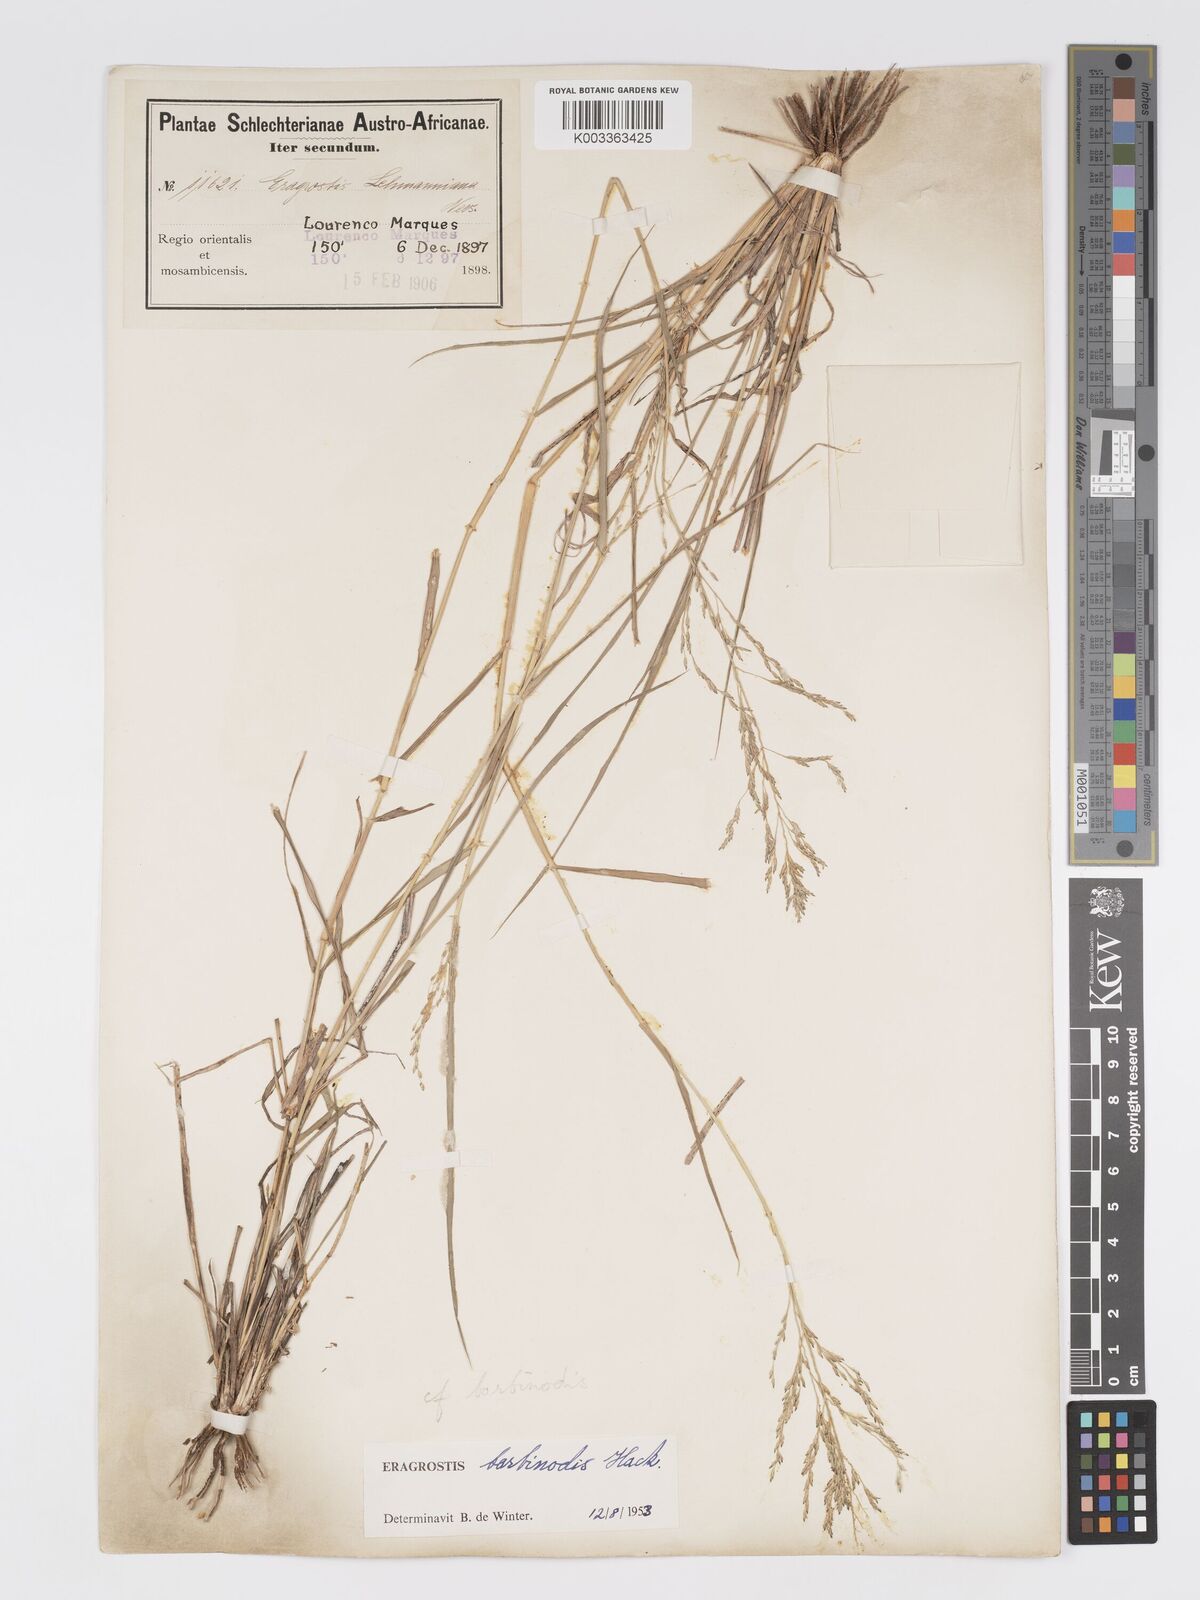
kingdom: Plantae
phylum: Tracheophyta
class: Liliopsida
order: Poales
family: Poaceae
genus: Eragrostis
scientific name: Eragrostis barbinodis
